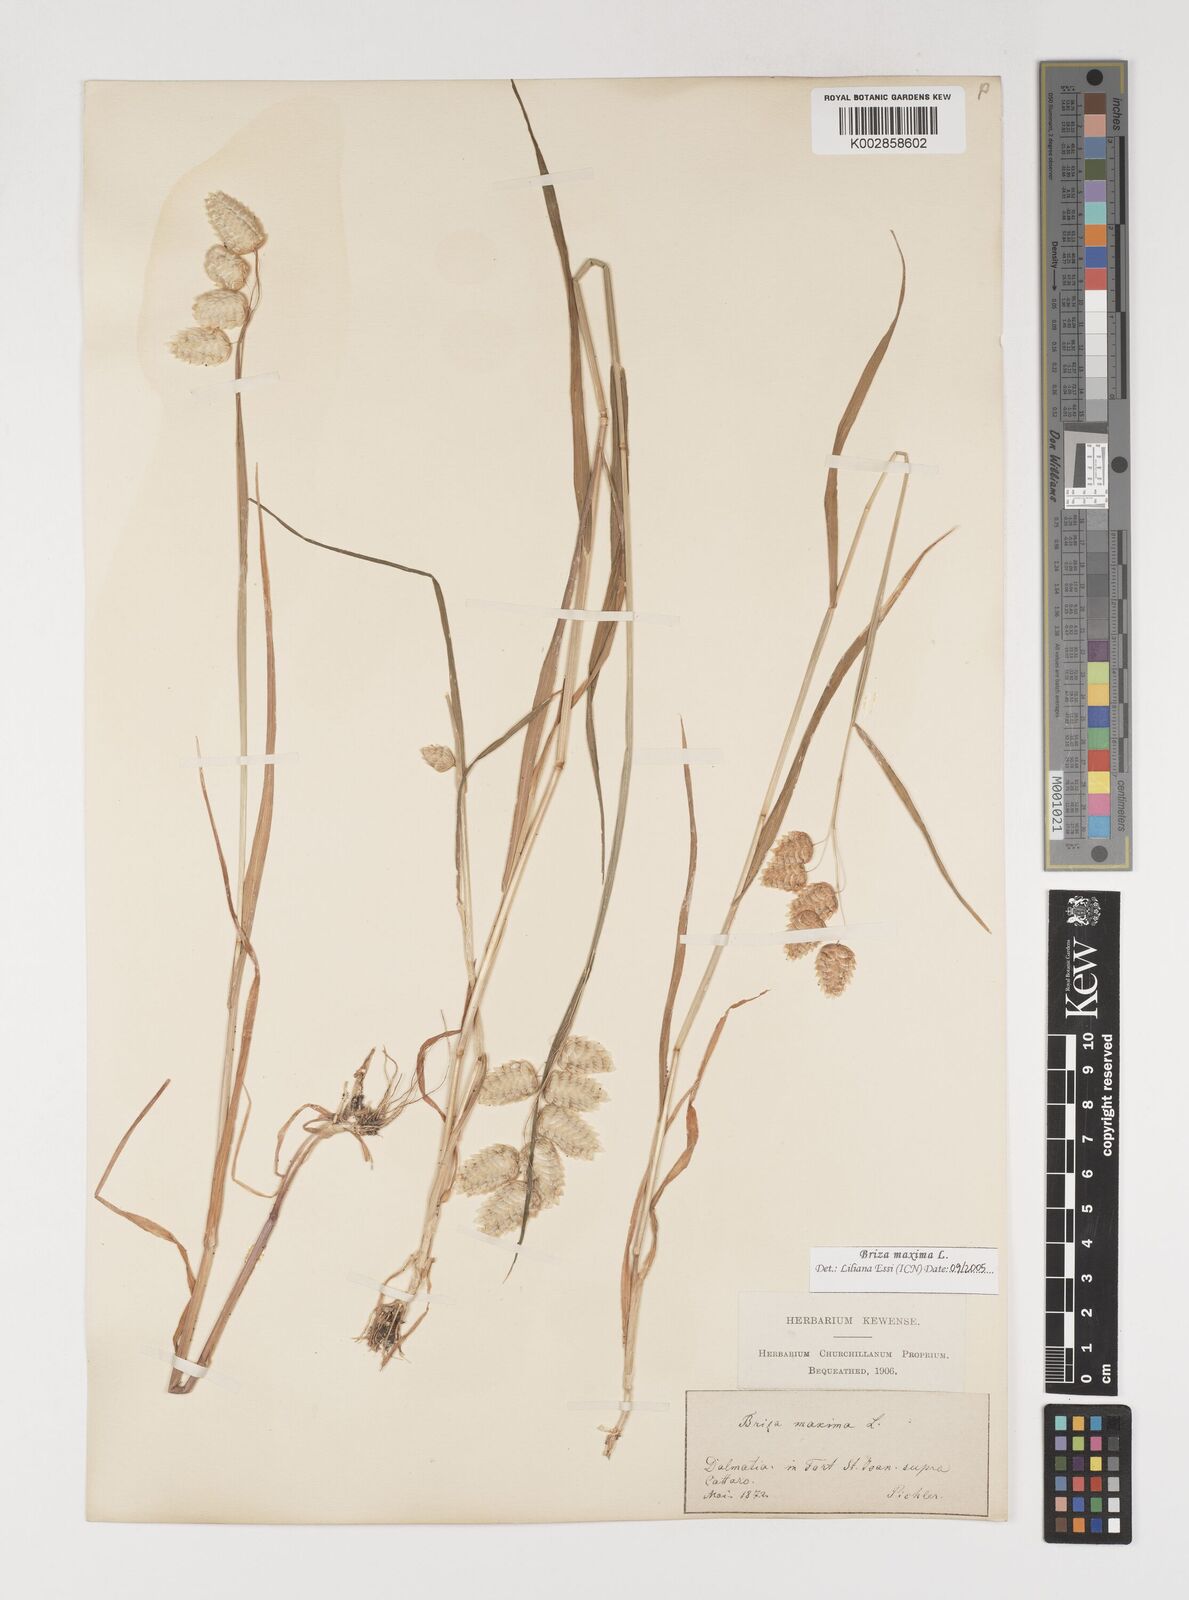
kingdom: Plantae
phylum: Tracheophyta
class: Liliopsida
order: Poales
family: Poaceae
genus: Briza
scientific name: Briza maxima
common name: Big quakinggrass
